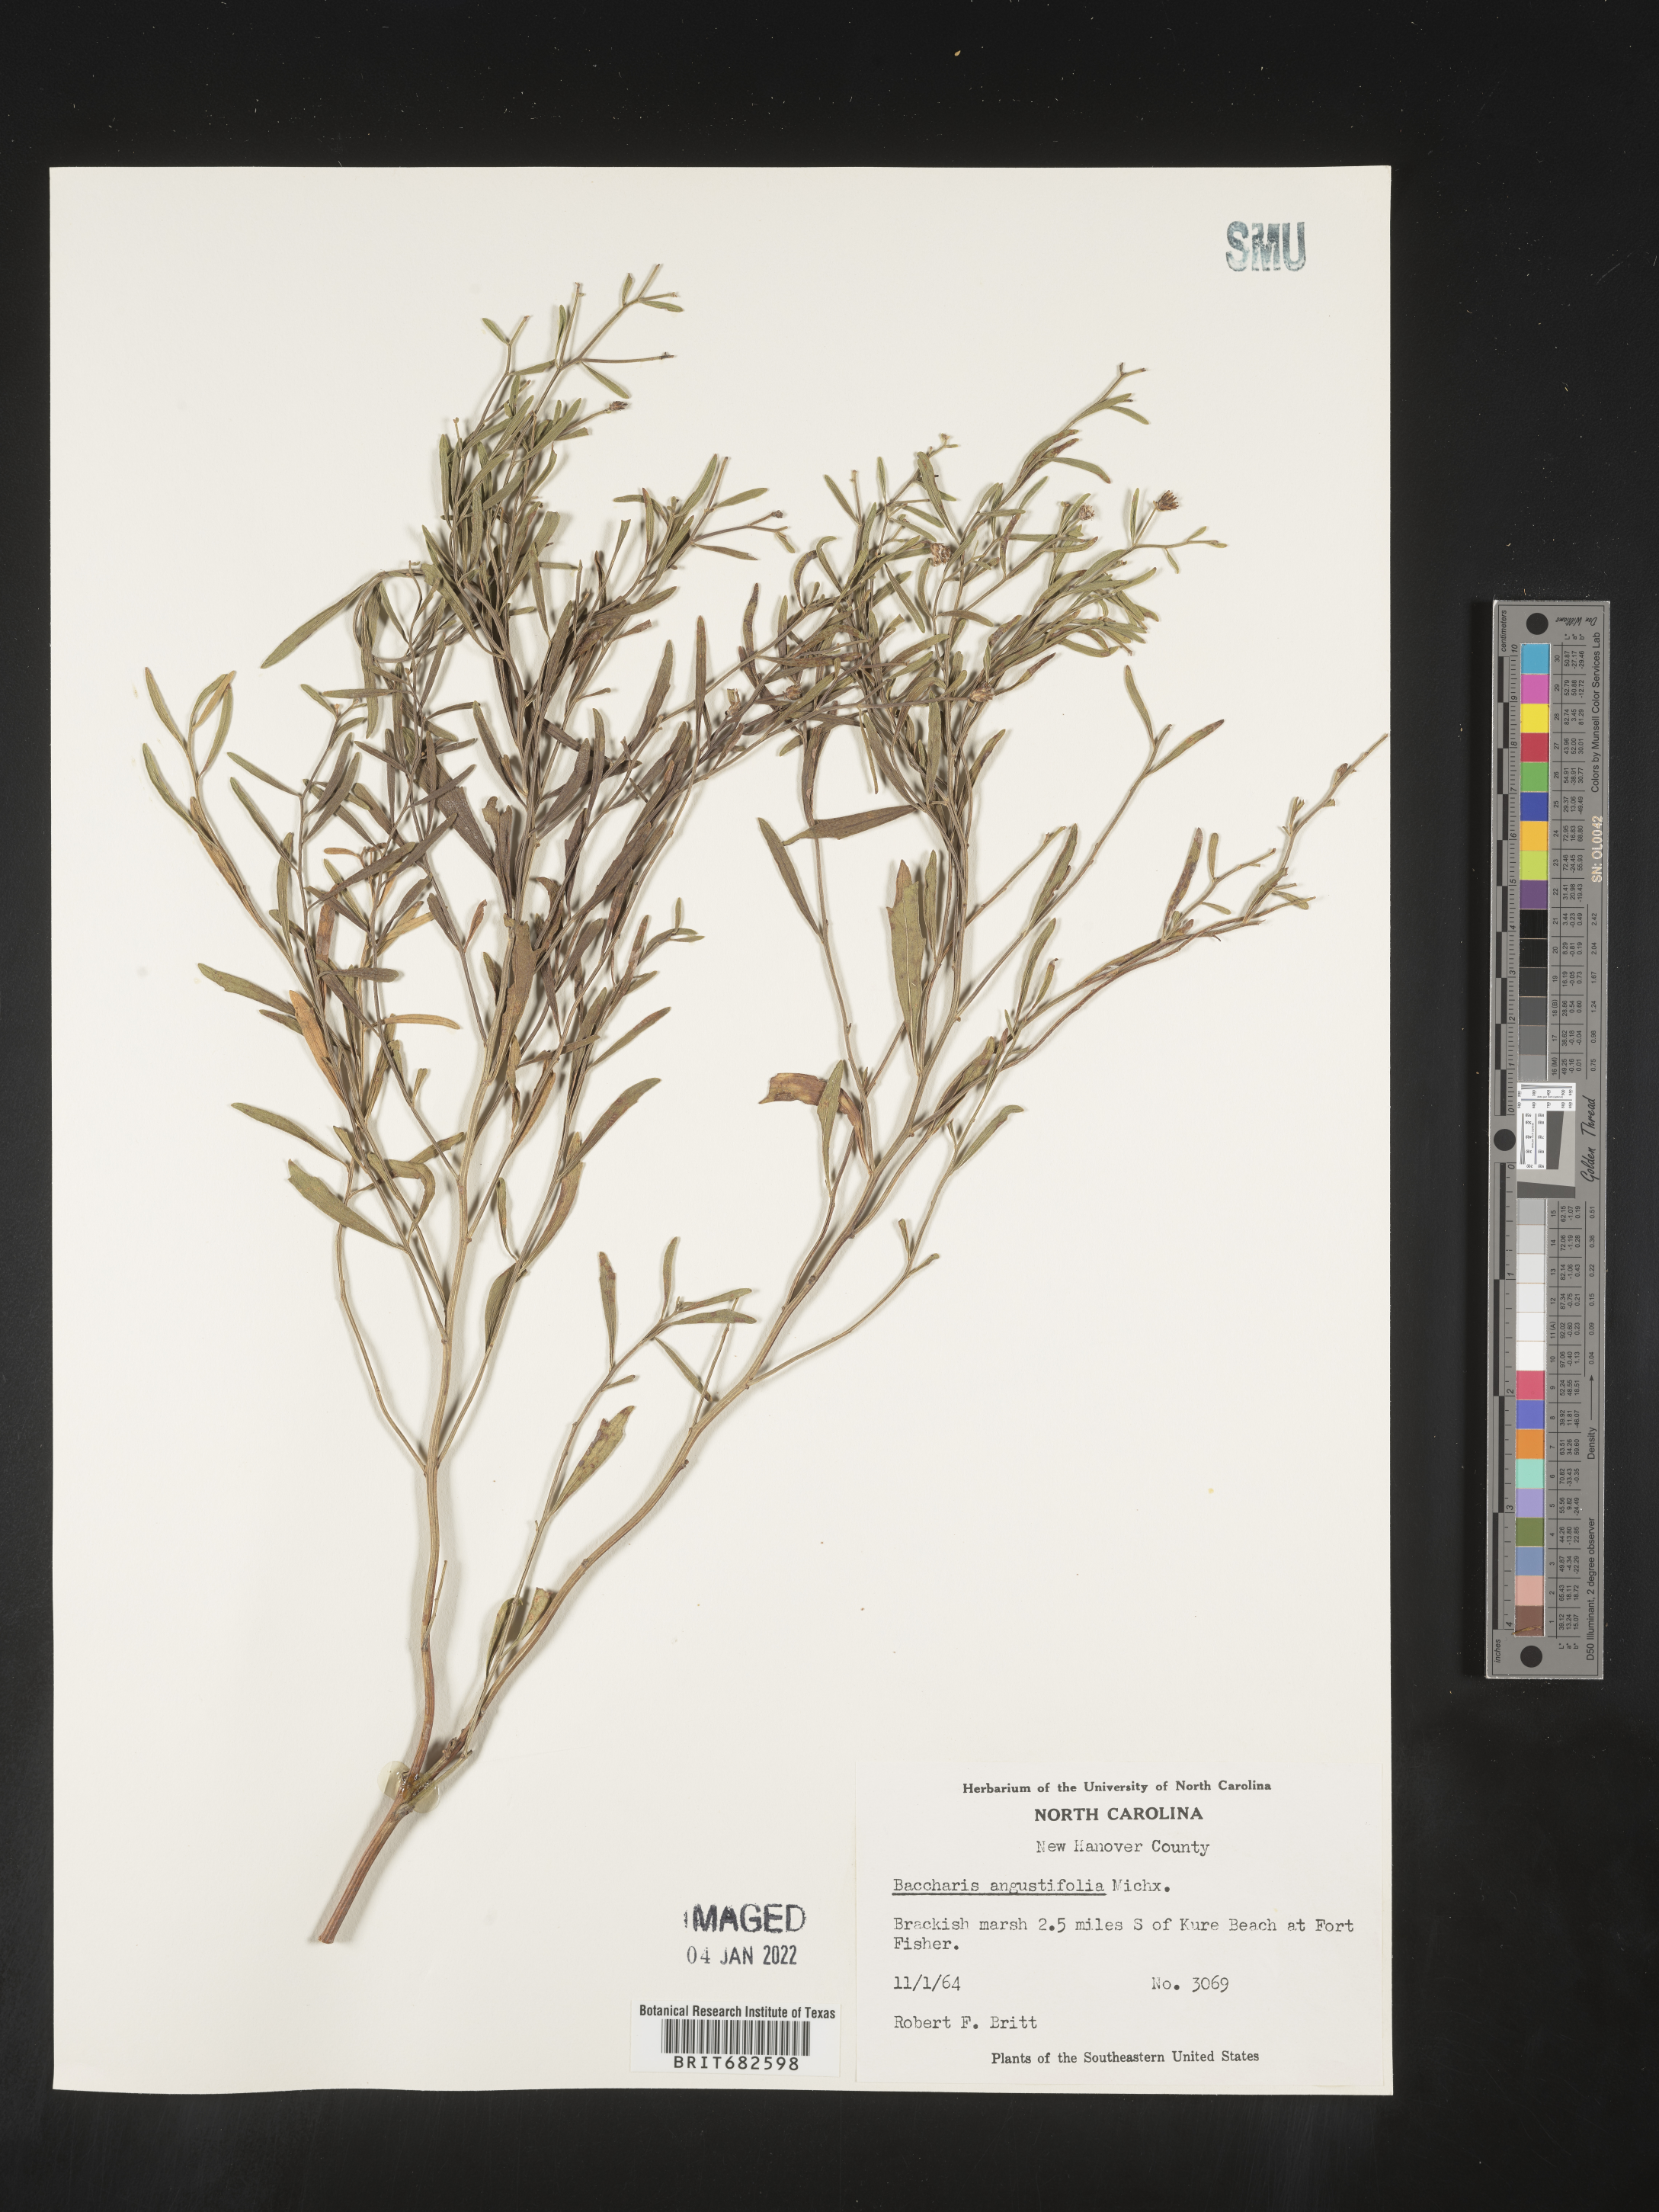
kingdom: Plantae
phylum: Tracheophyta
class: Magnoliopsida
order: Asterales
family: Asteraceae
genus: Baccharis
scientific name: Baccharis angustifolia
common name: Narrow-leaf baccharis
